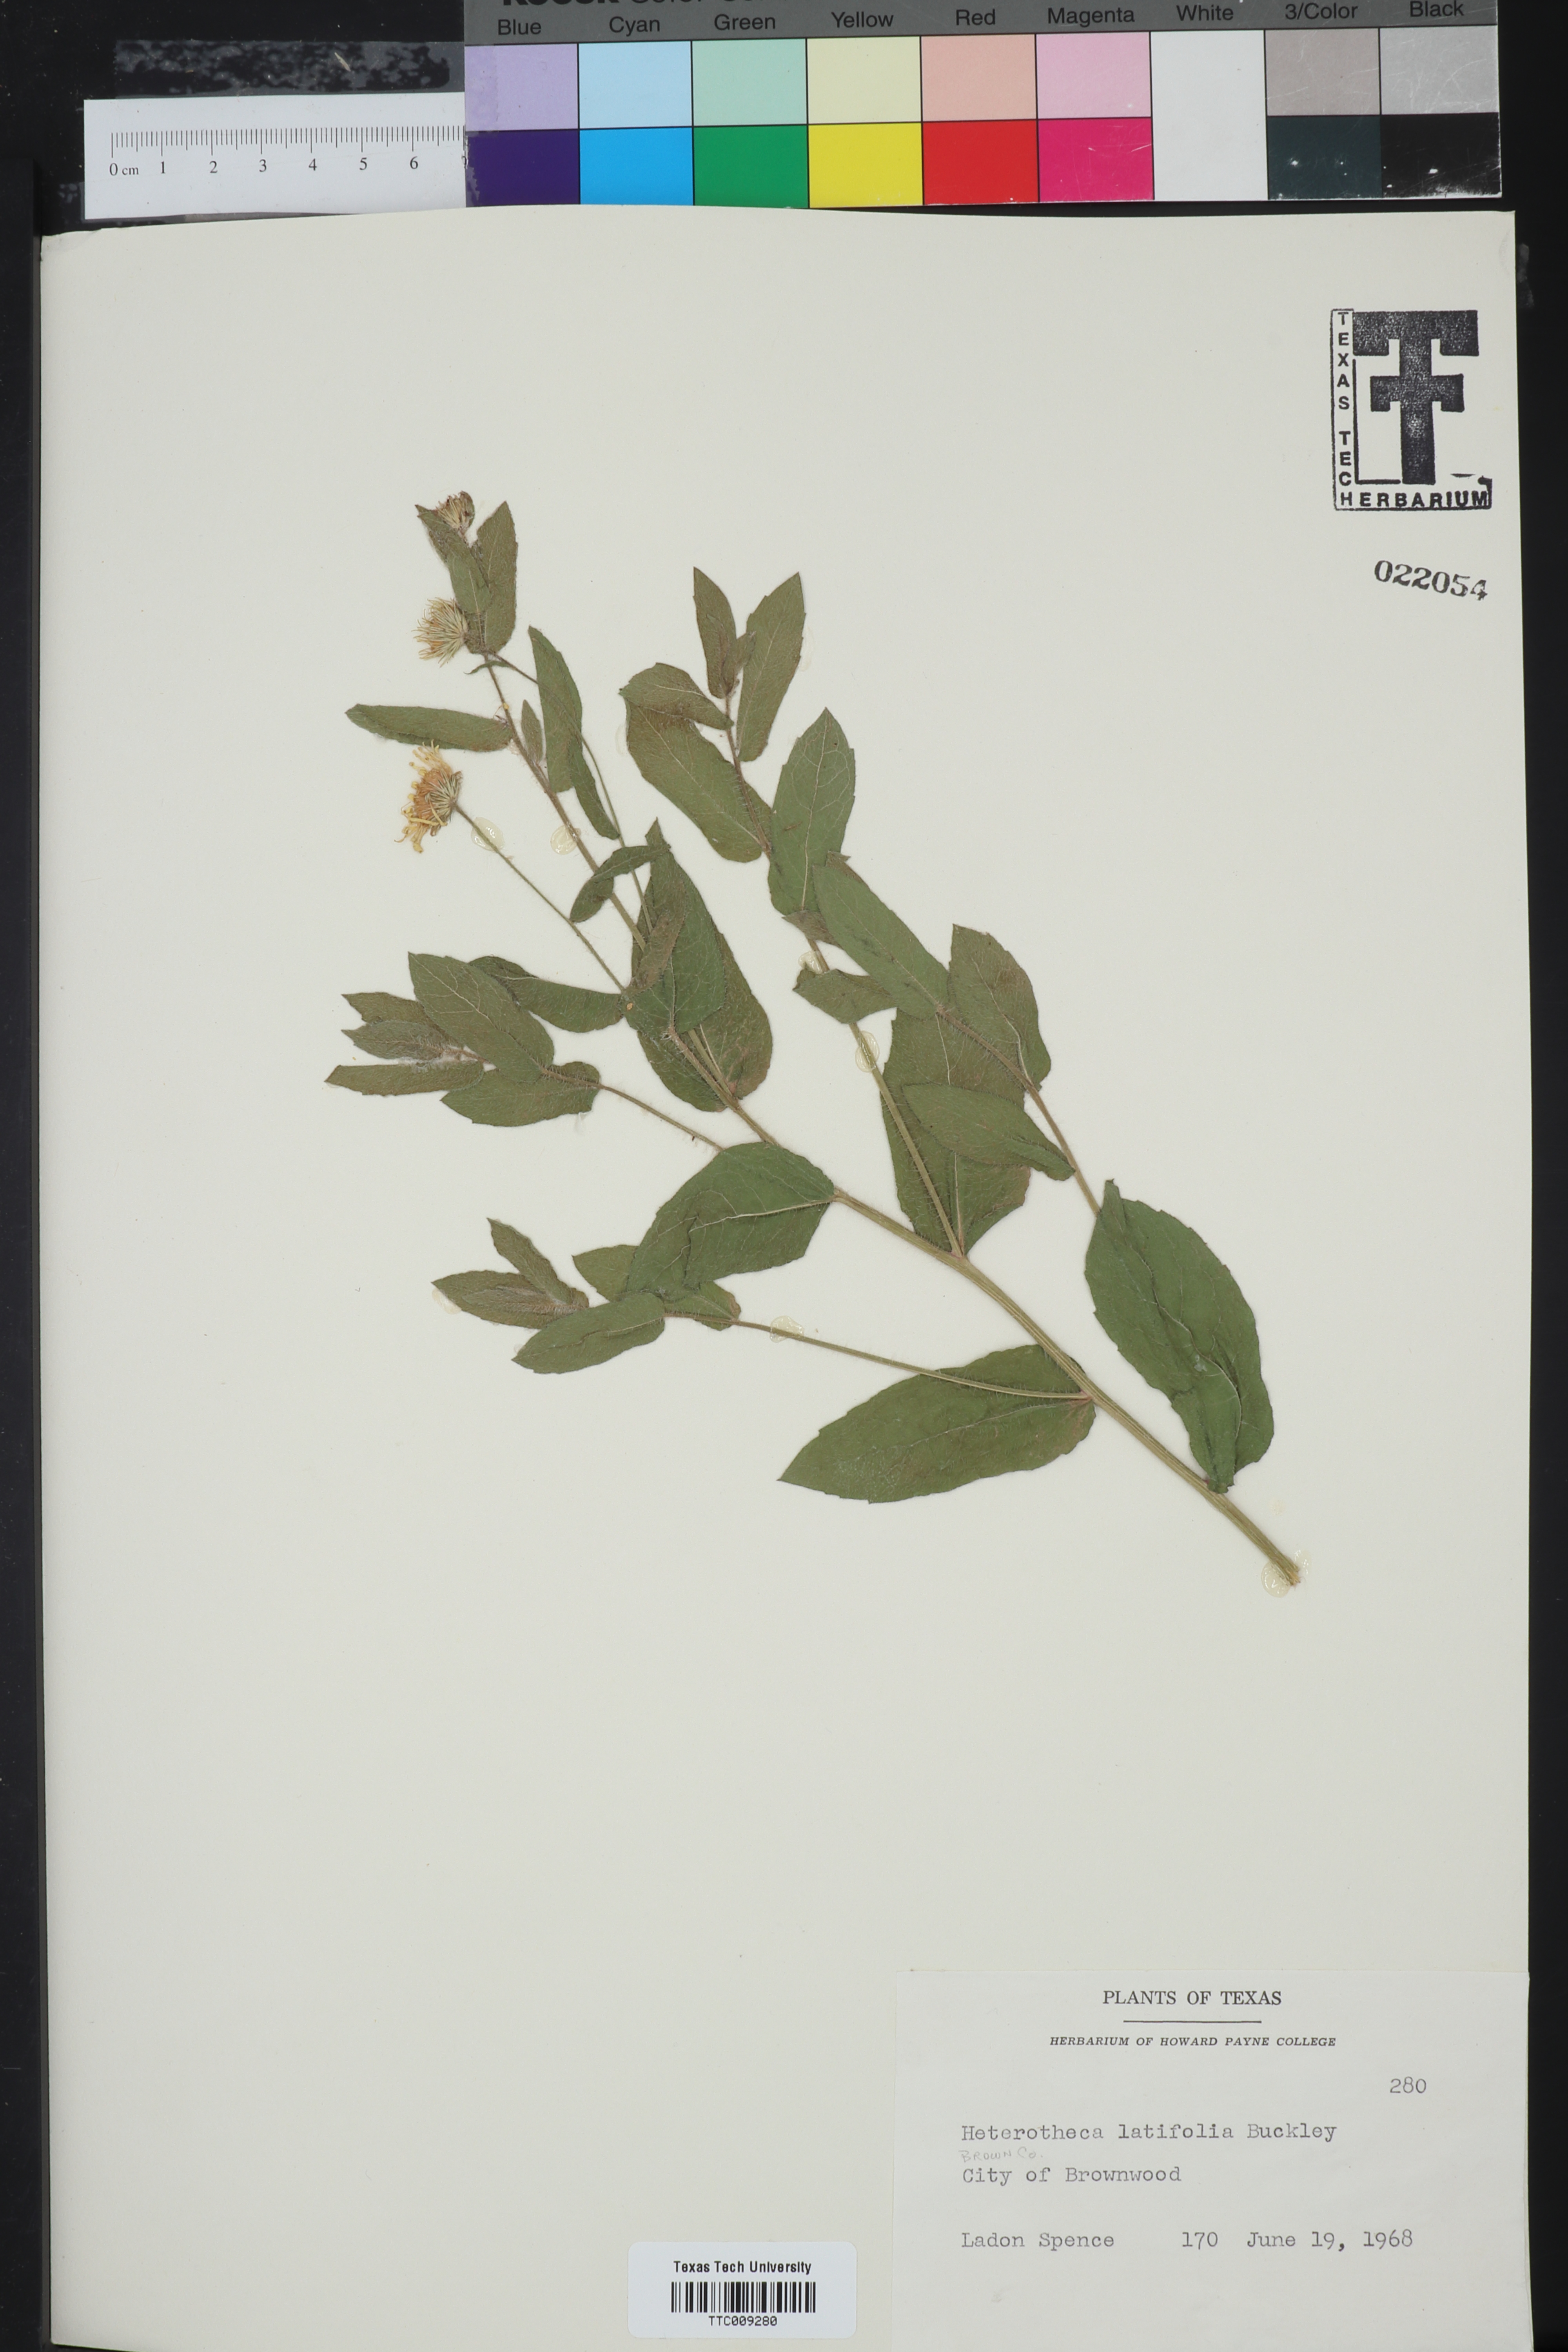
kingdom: Plantae
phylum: Tracheophyta
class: Magnoliopsida
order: Asterales
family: Asteraceae
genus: Heterotheca
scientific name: Heterotheca subaxillaris
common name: Camphorweed
